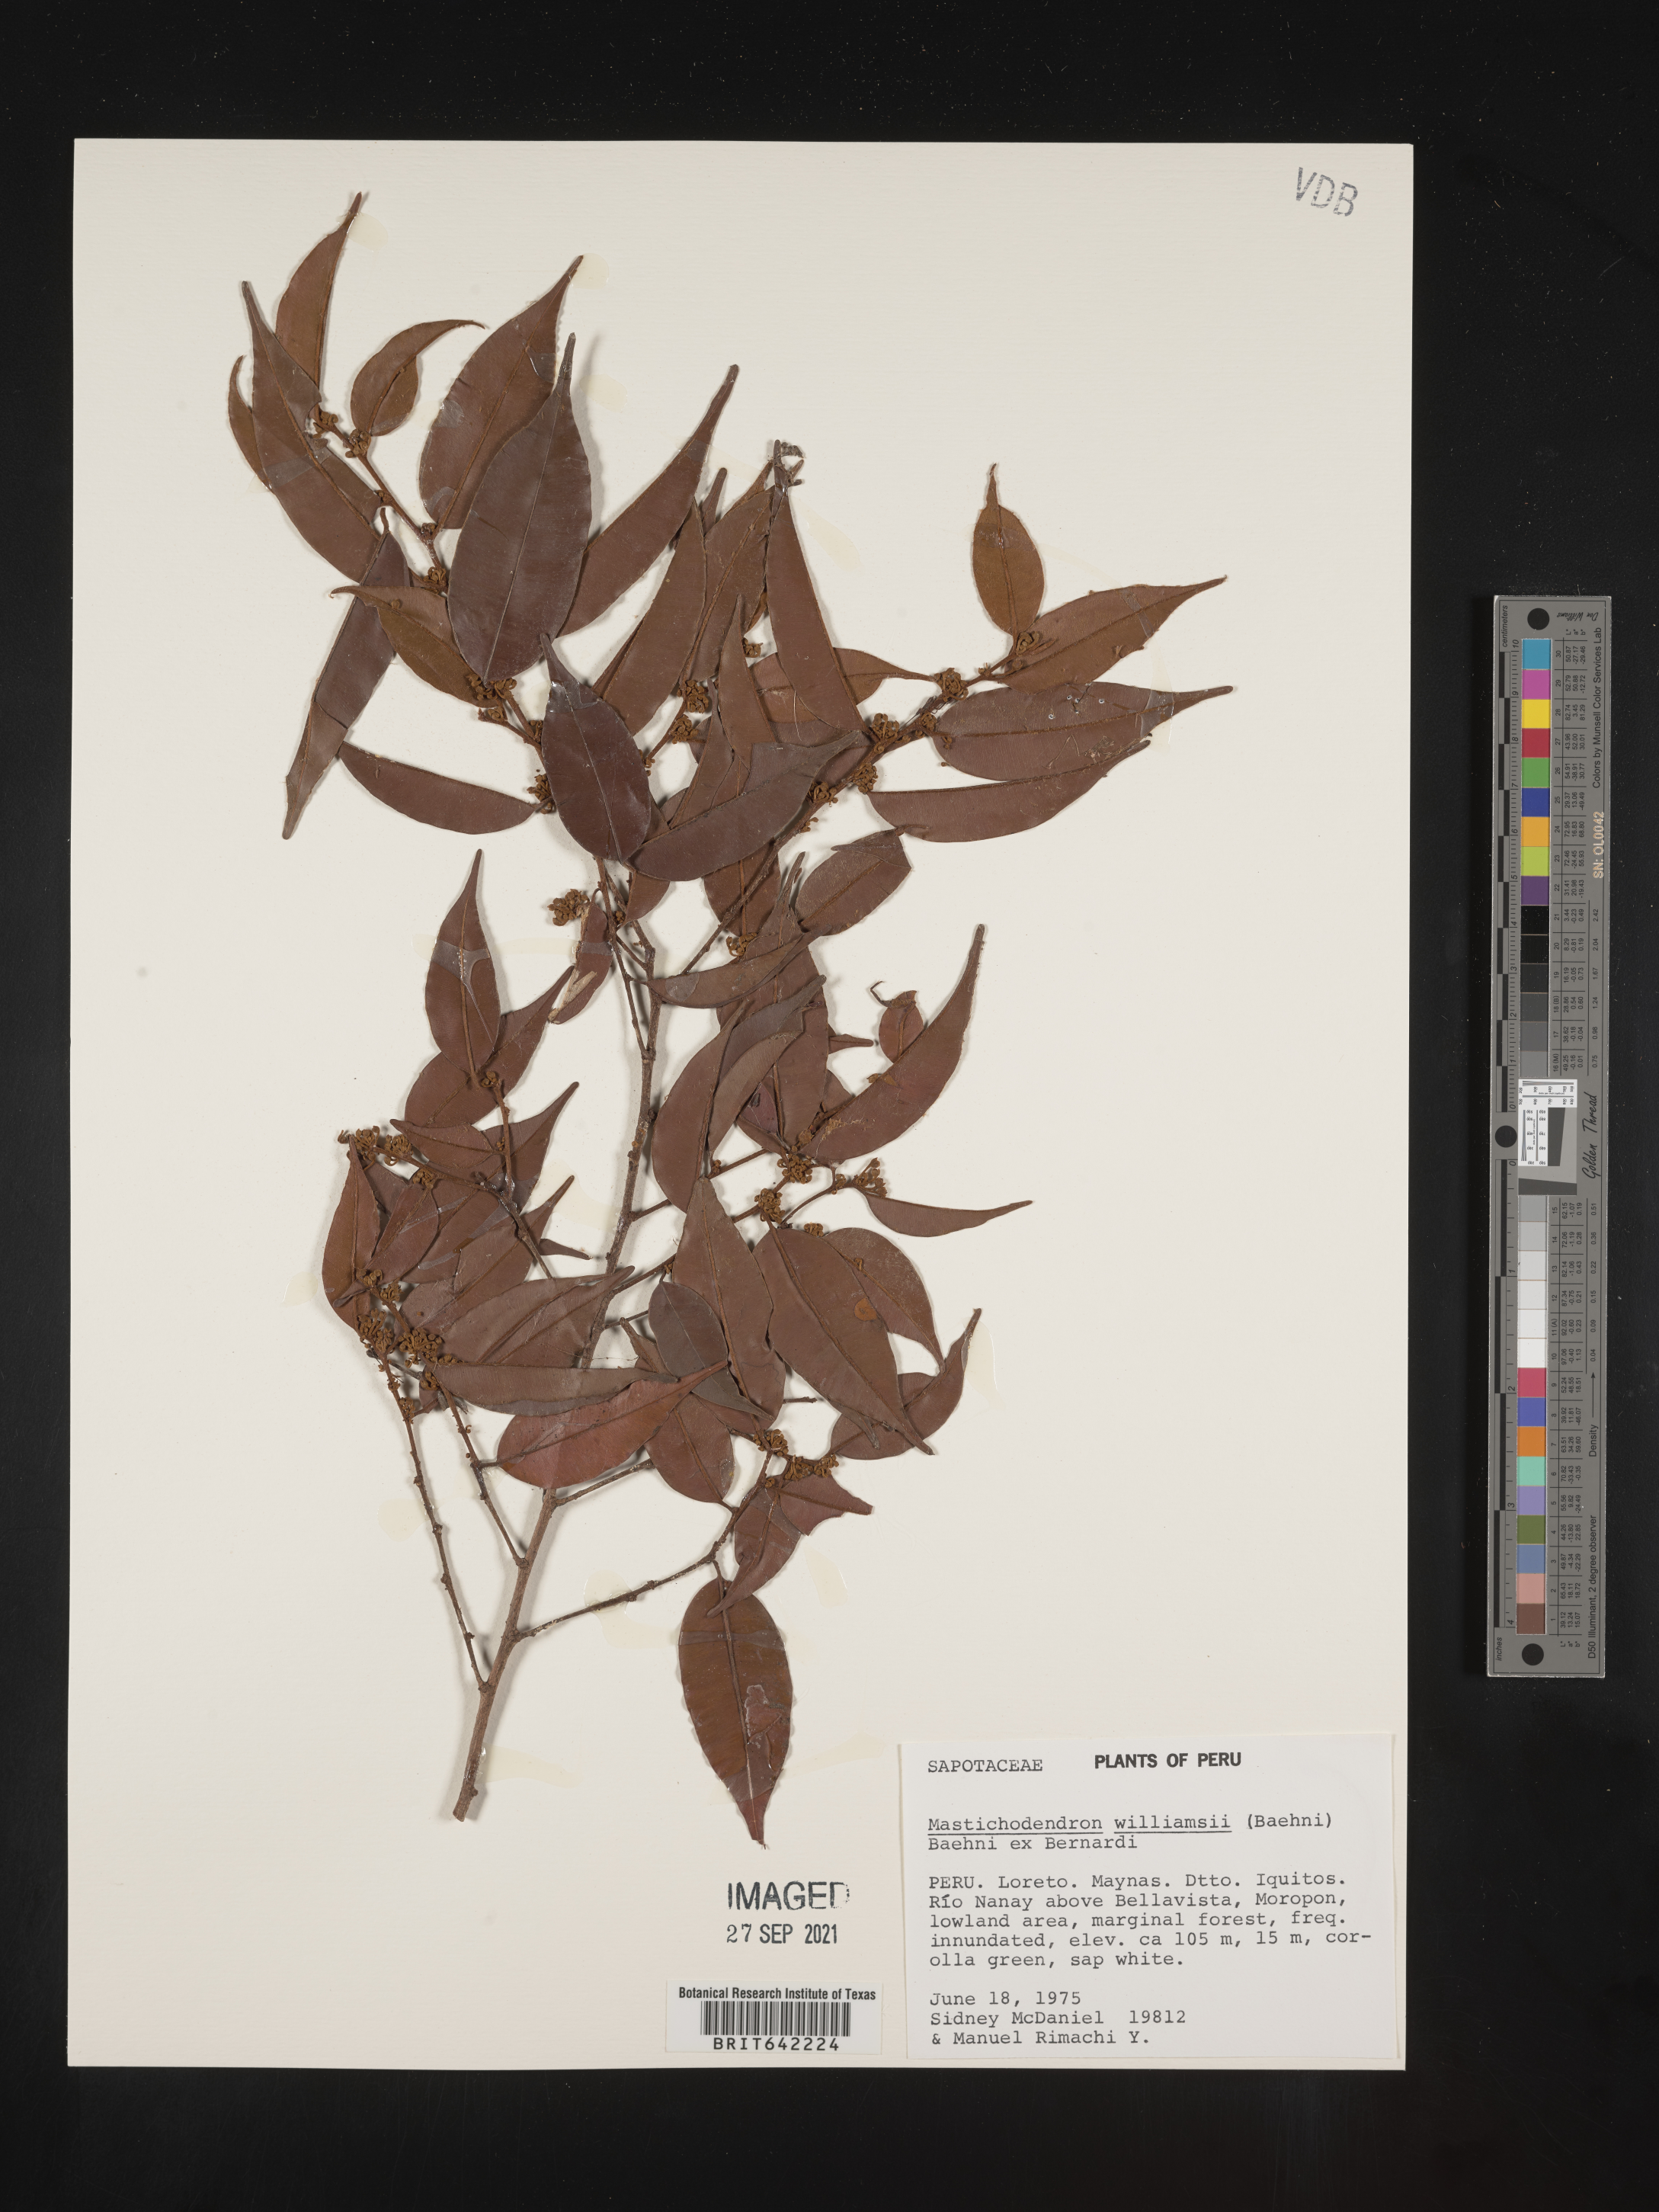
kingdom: Plantae
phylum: Tracheophyta
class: Magnoliopsida
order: Ericales
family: Sapotaceae
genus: Mastichodendron
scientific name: Mastichodendron
